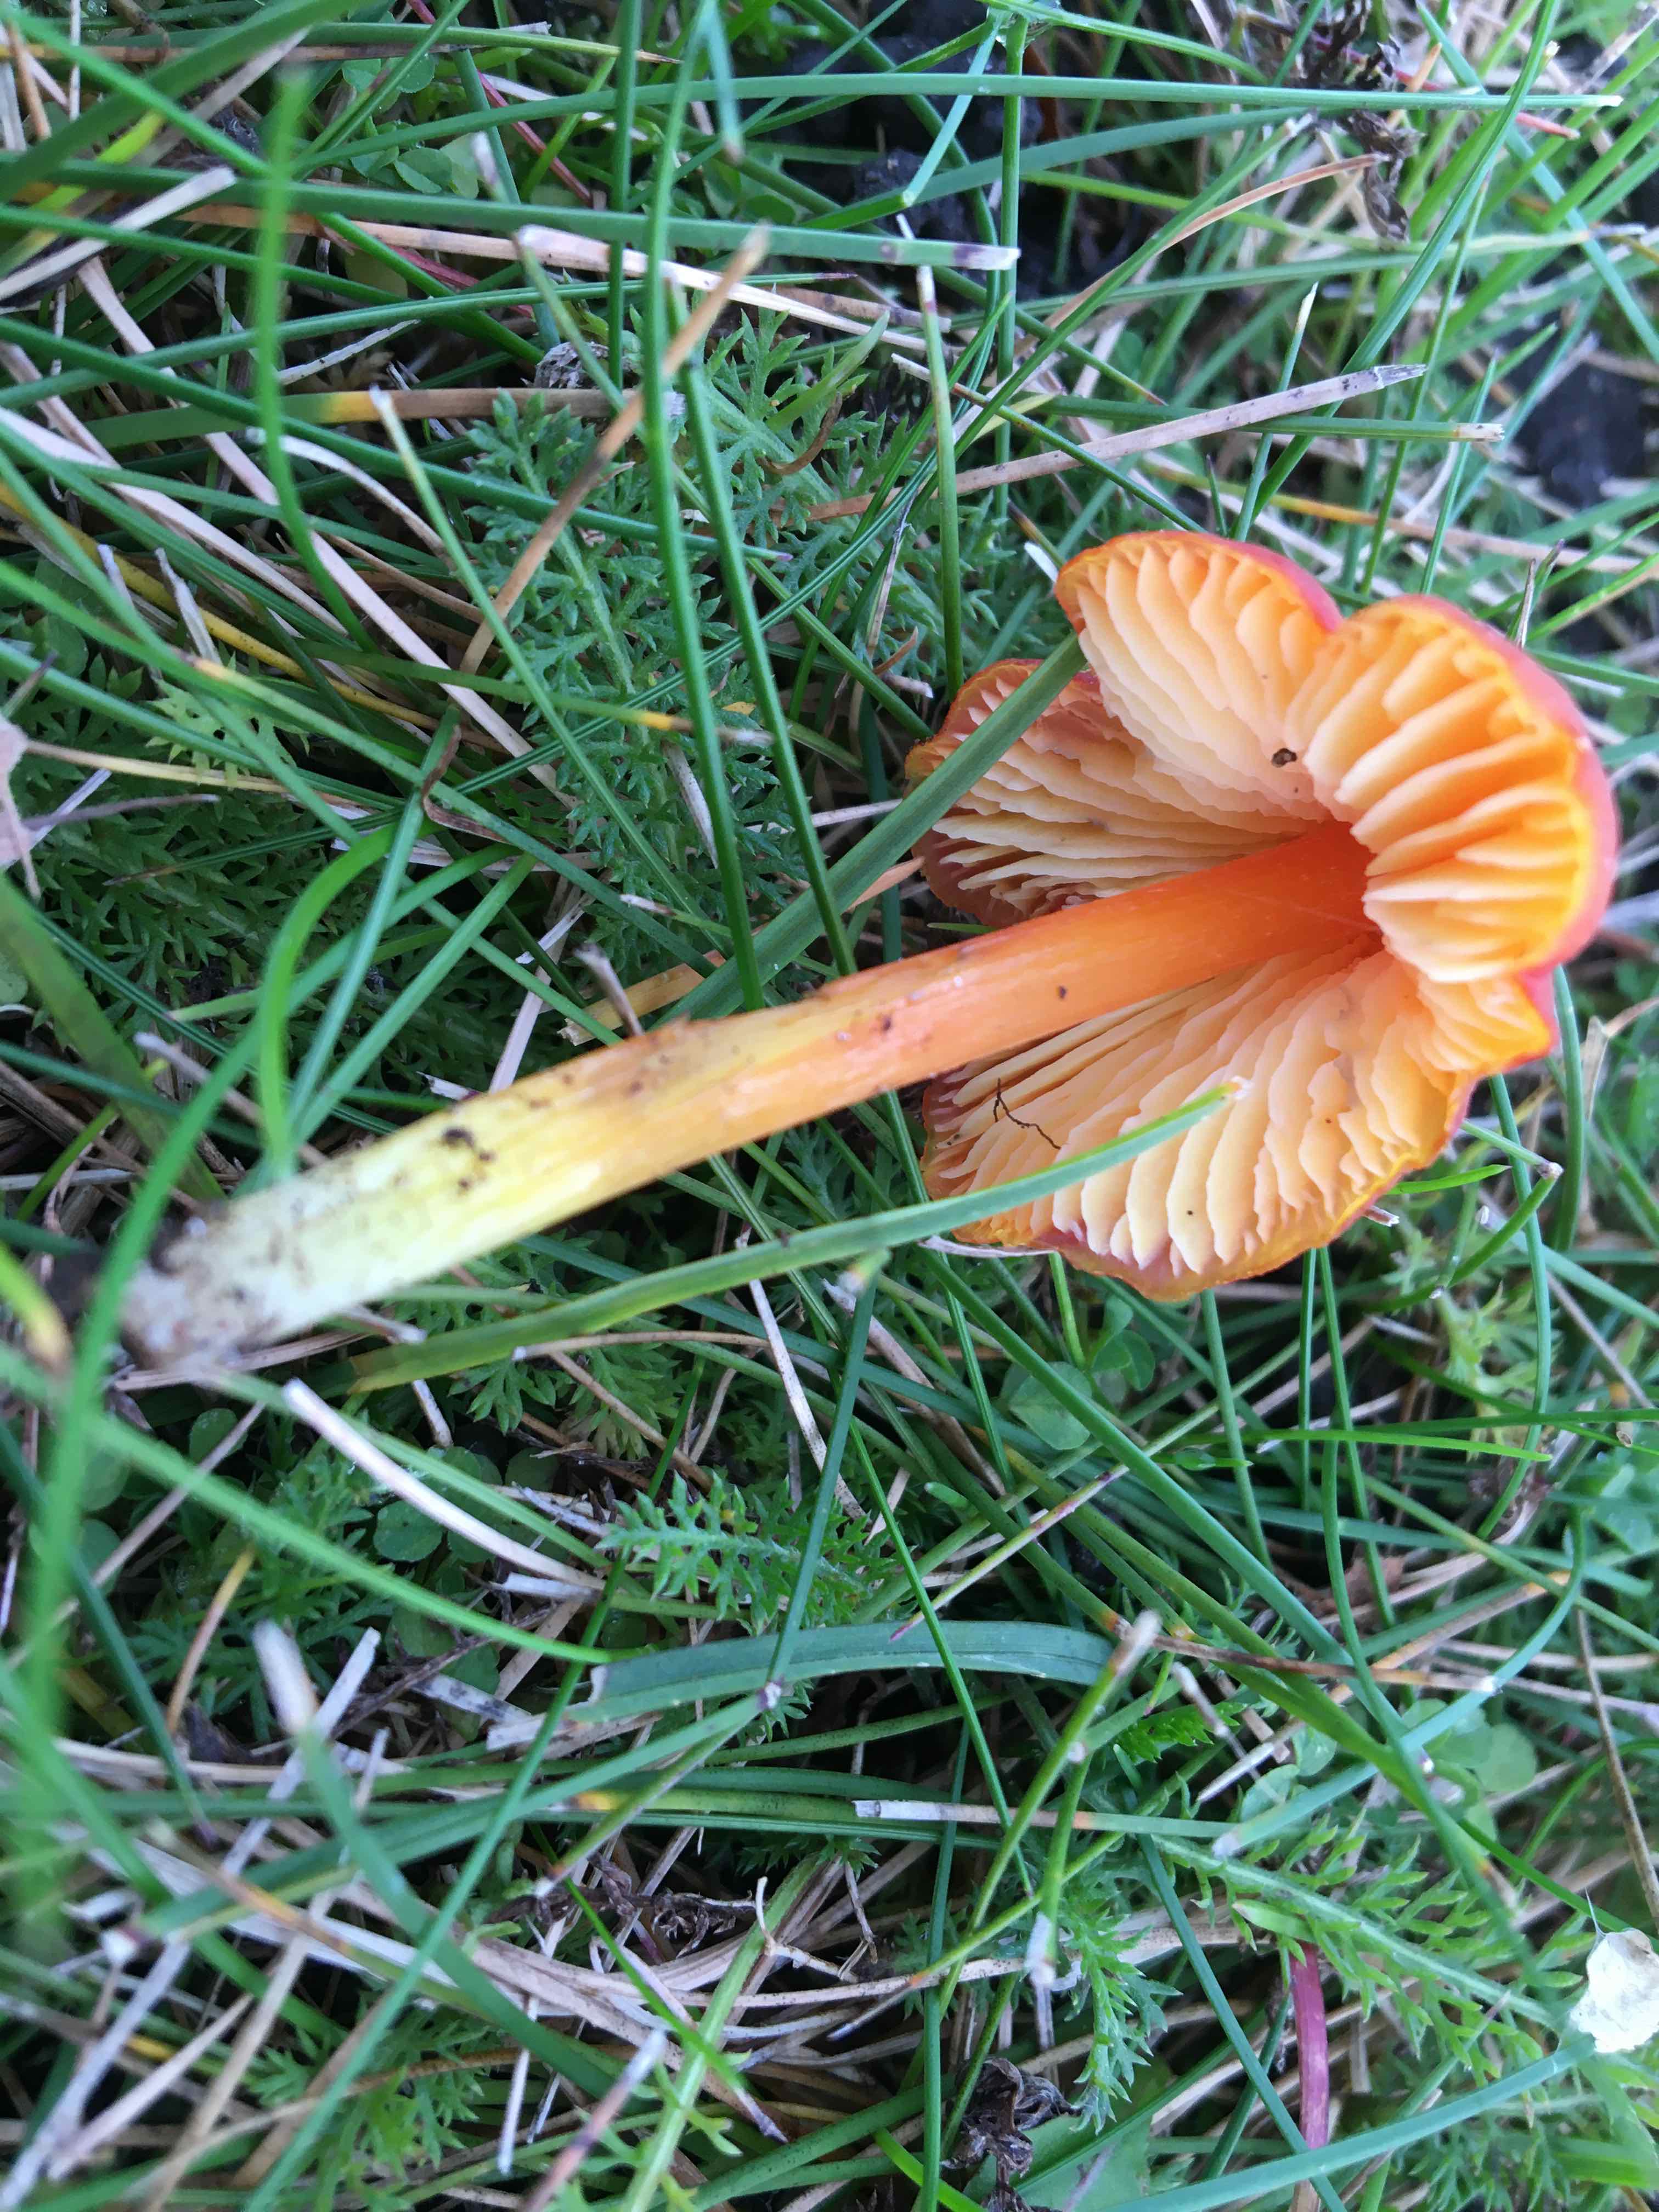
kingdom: Fungi
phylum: Basidiomycota
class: Agaricomycetes
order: Agaricales
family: Hygrophoraceae
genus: Hygrocybe
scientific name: Hygrocybe conica
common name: kegle-vokshat
